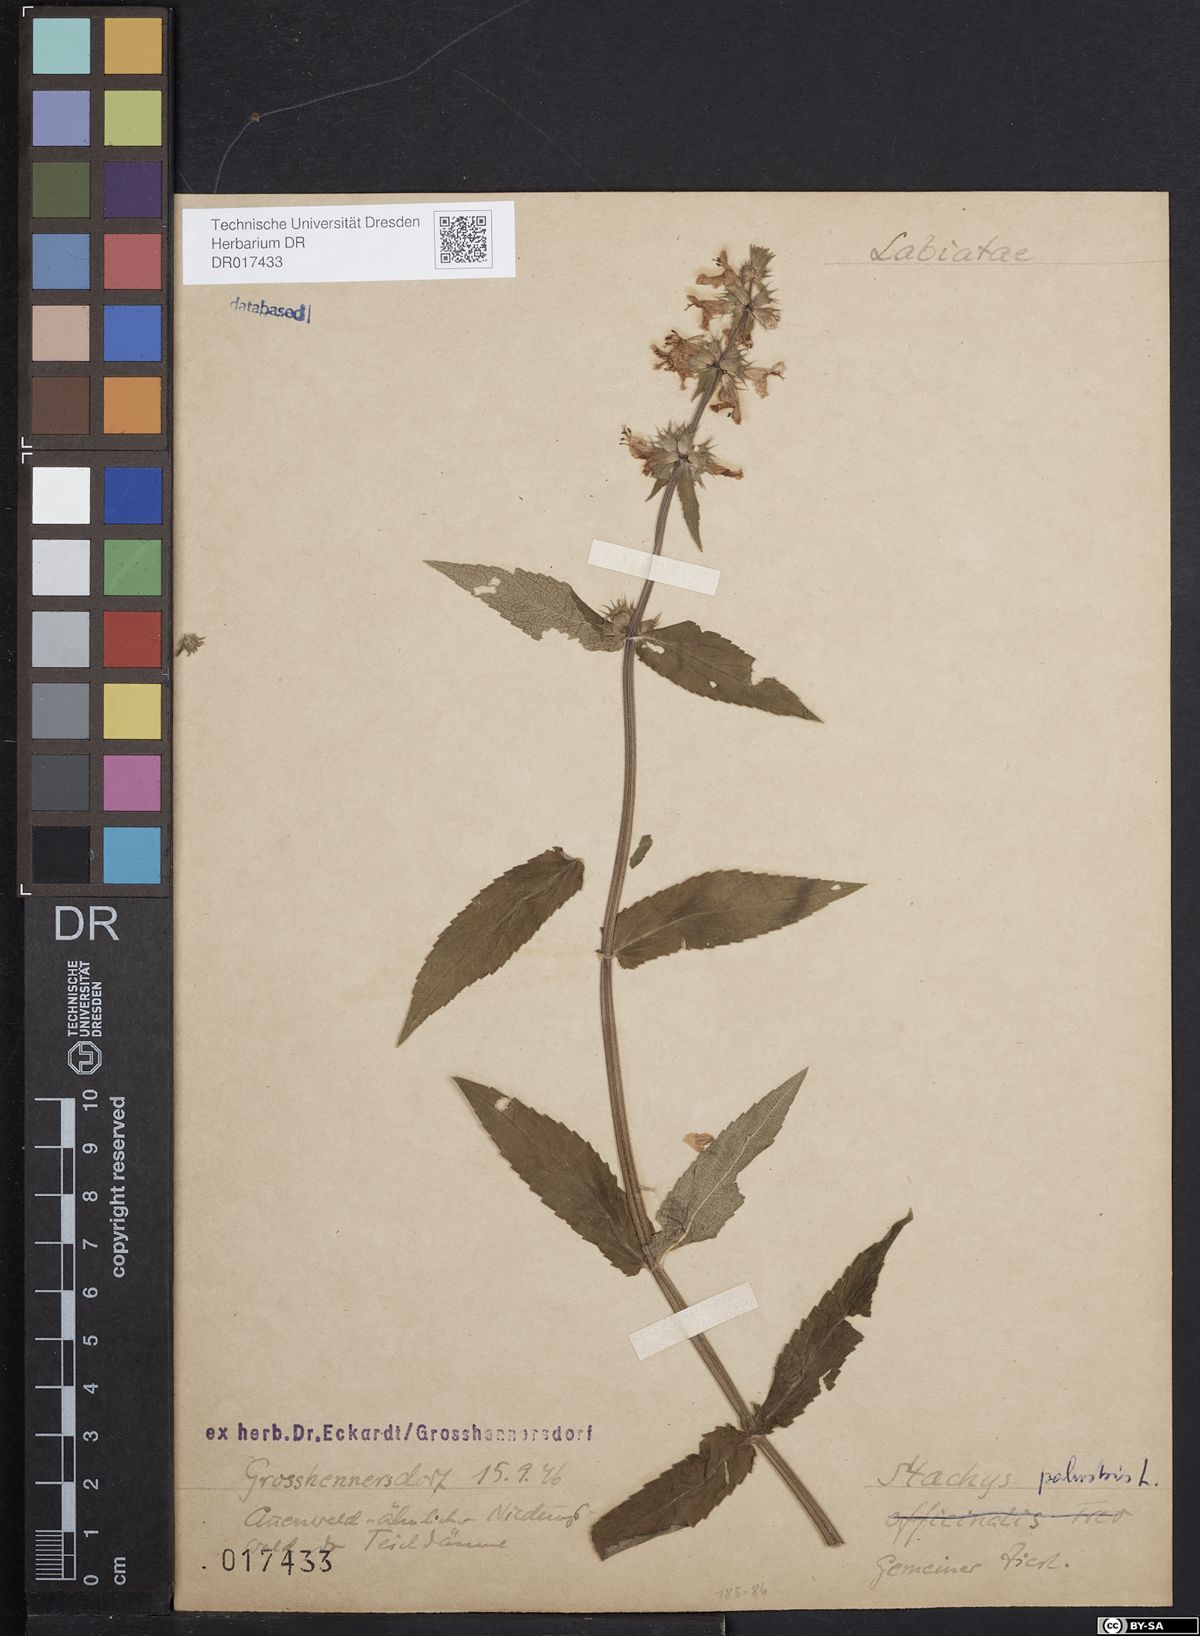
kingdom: Plantae
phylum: Tracheophyta
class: Magnoliopsida
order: Lamiales
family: Lamiaceae
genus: Stachys
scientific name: Stachys palustris
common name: Marsh woundwort
